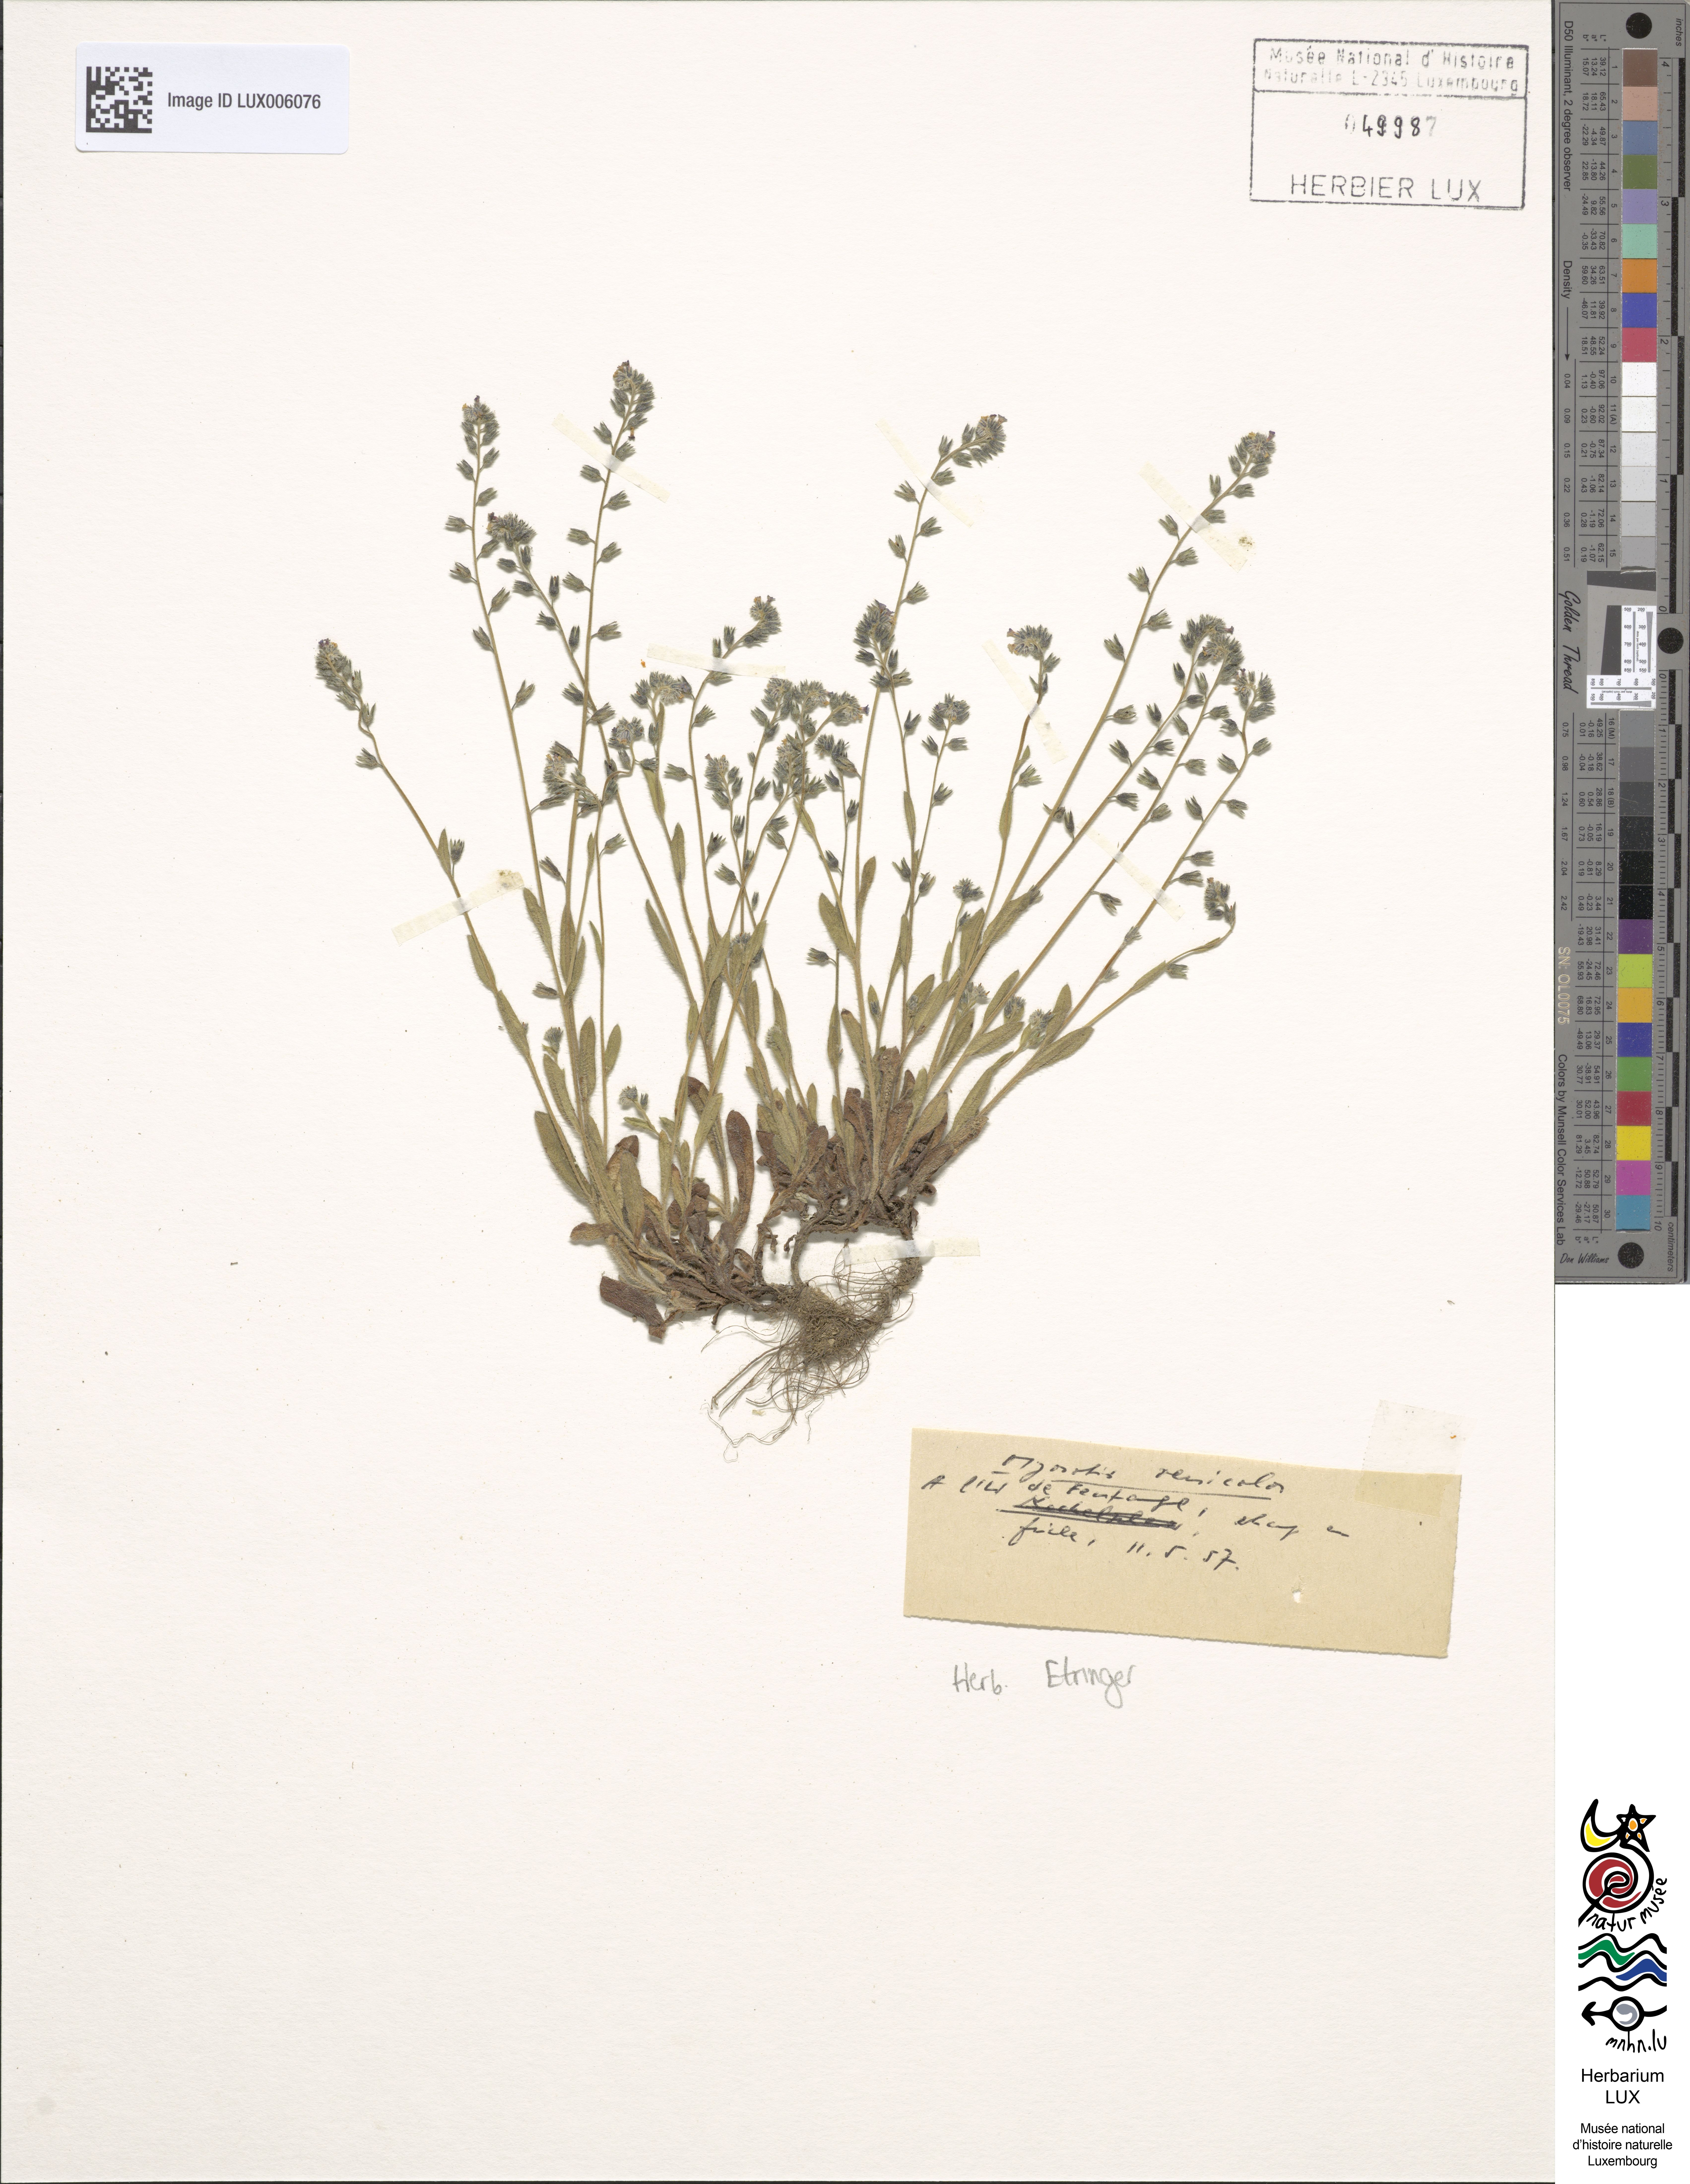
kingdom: Plantae
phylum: Tracheophyta
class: Magnoliopsida
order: Boraginales
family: Boraginaceae
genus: Myosotis
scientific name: Myosotis discolor
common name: Changing forget-me-not
